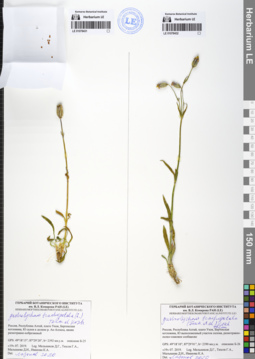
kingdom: Plantae
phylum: Tracheophyta
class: Magnoliopsida
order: Caryophyllales
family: Caryophyllaceae
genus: Silene
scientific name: Silene songarica
